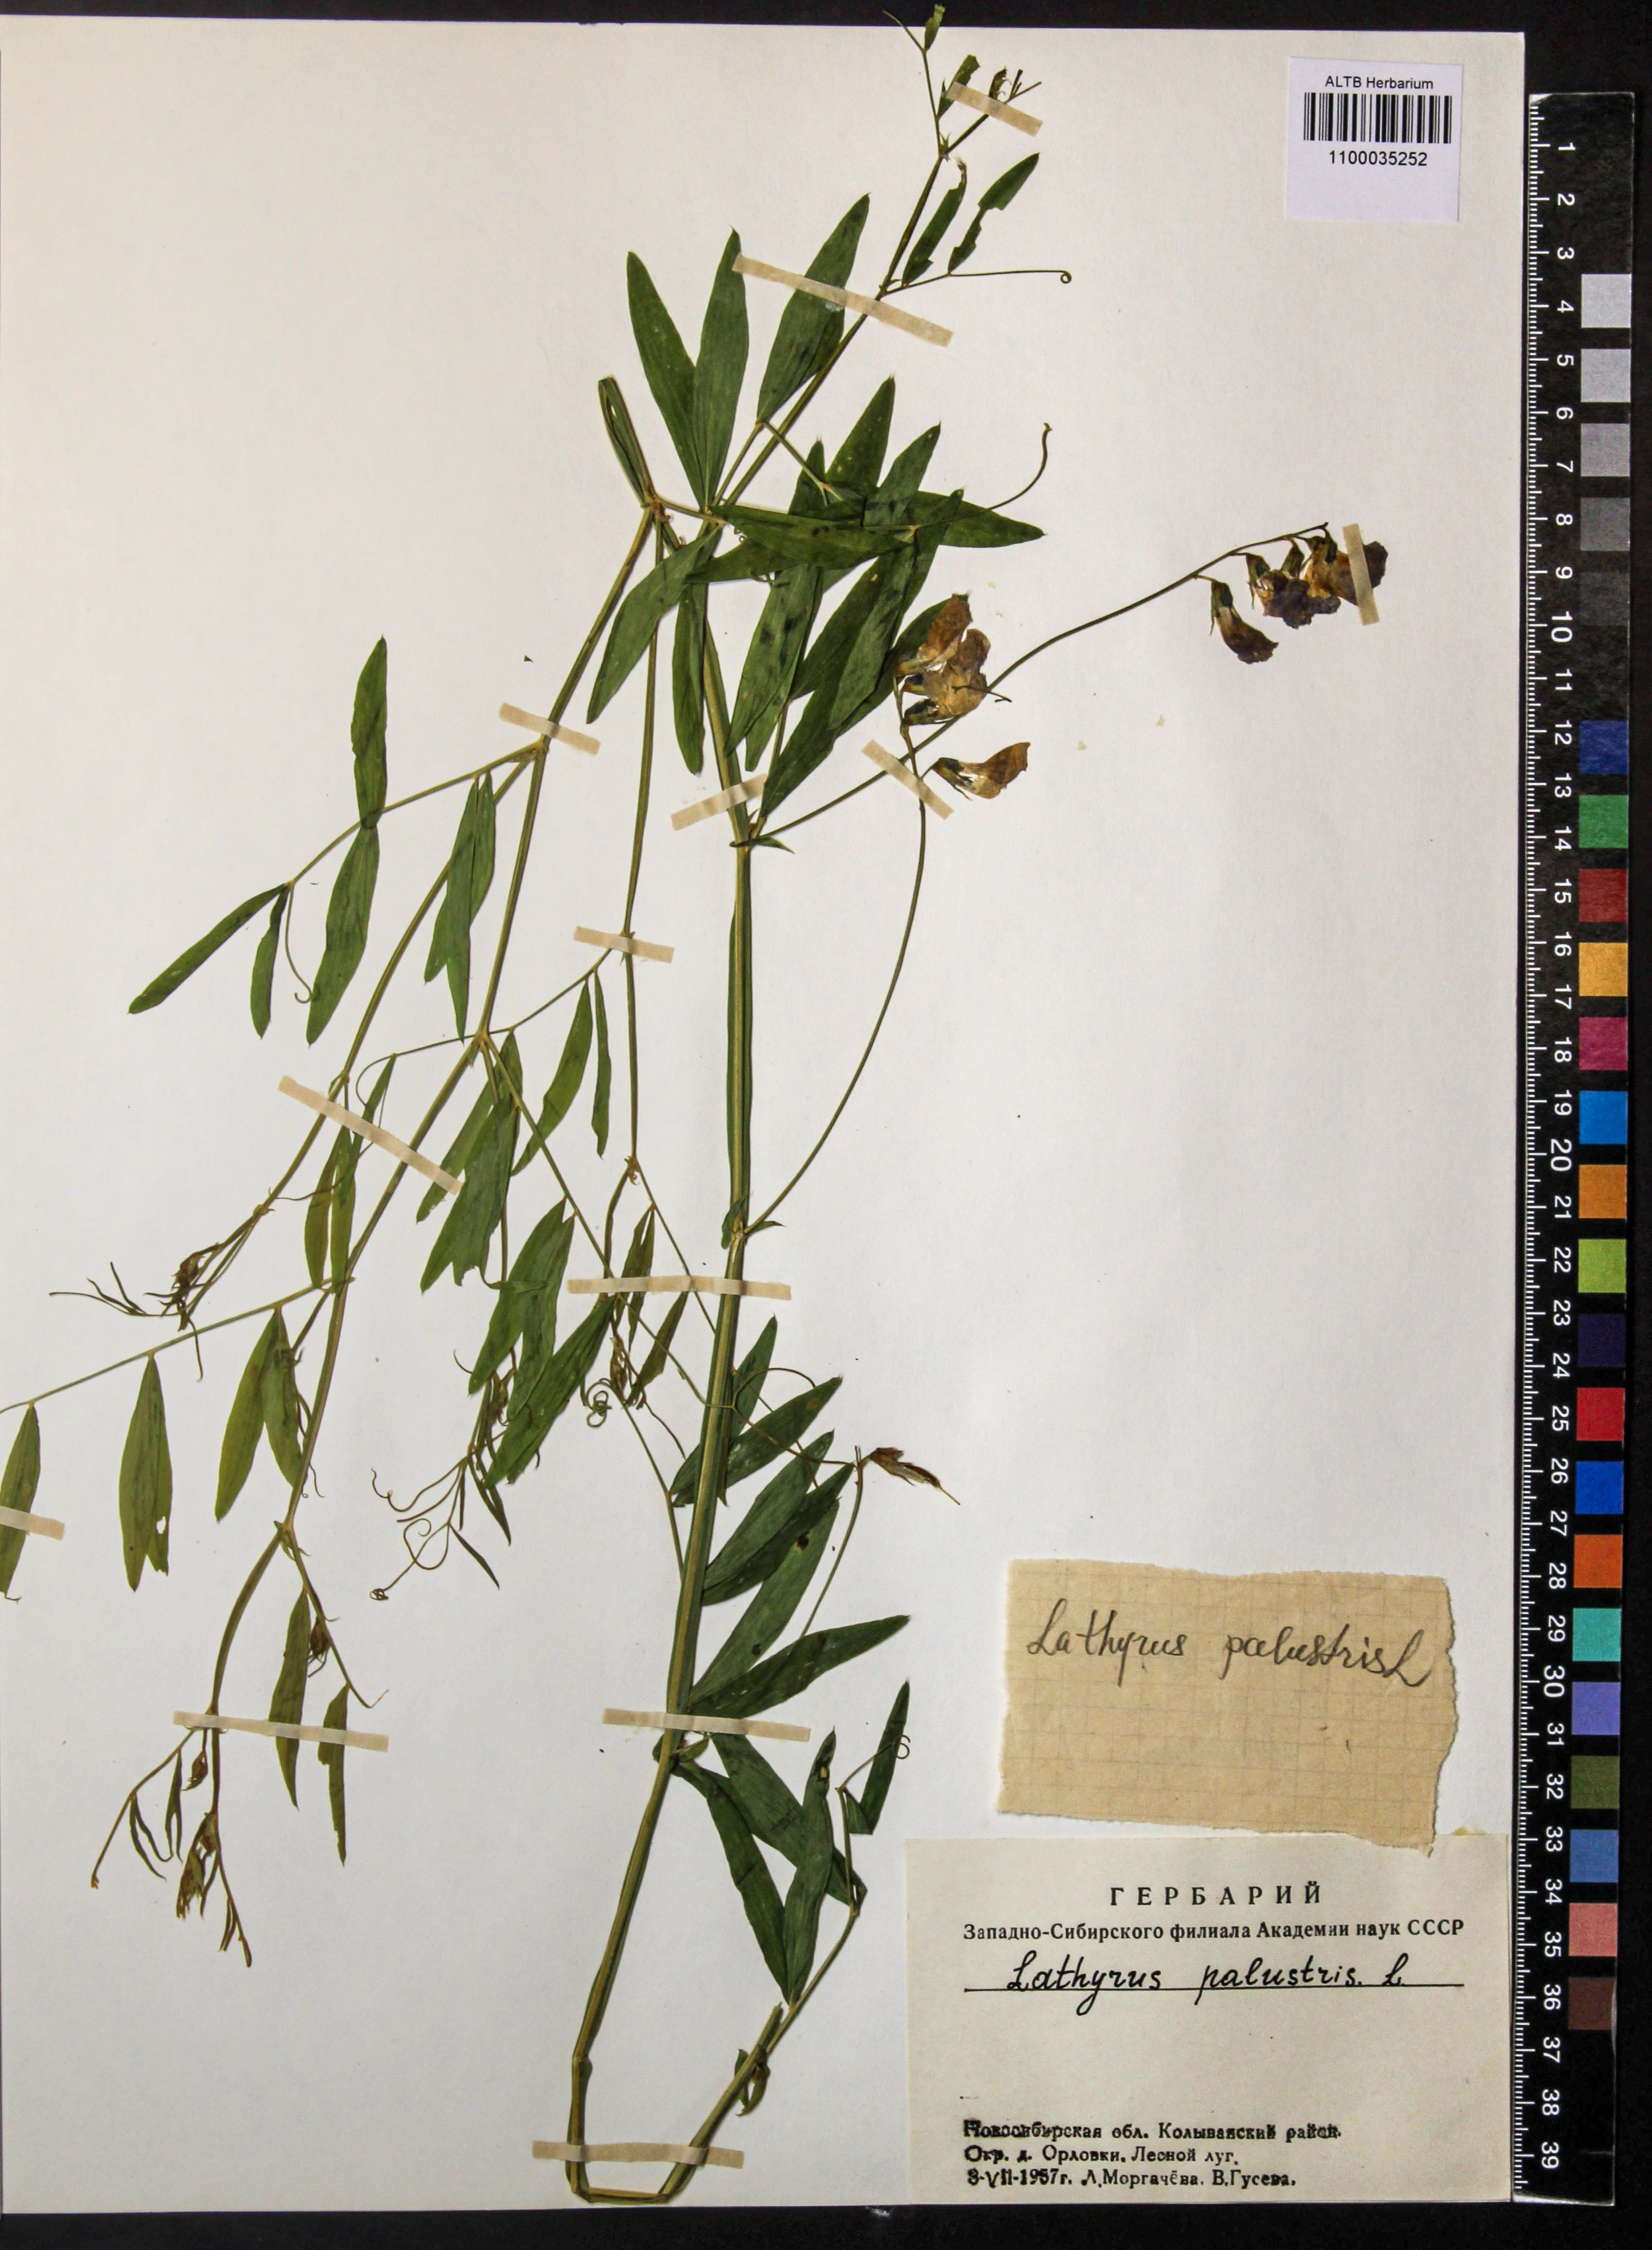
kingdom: Plantae
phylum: Tracheophyta
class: Magnoliopsida
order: Fabales
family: Fabaceae
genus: Lathyrus
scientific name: Lathyrus palustris
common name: Marsh pea
